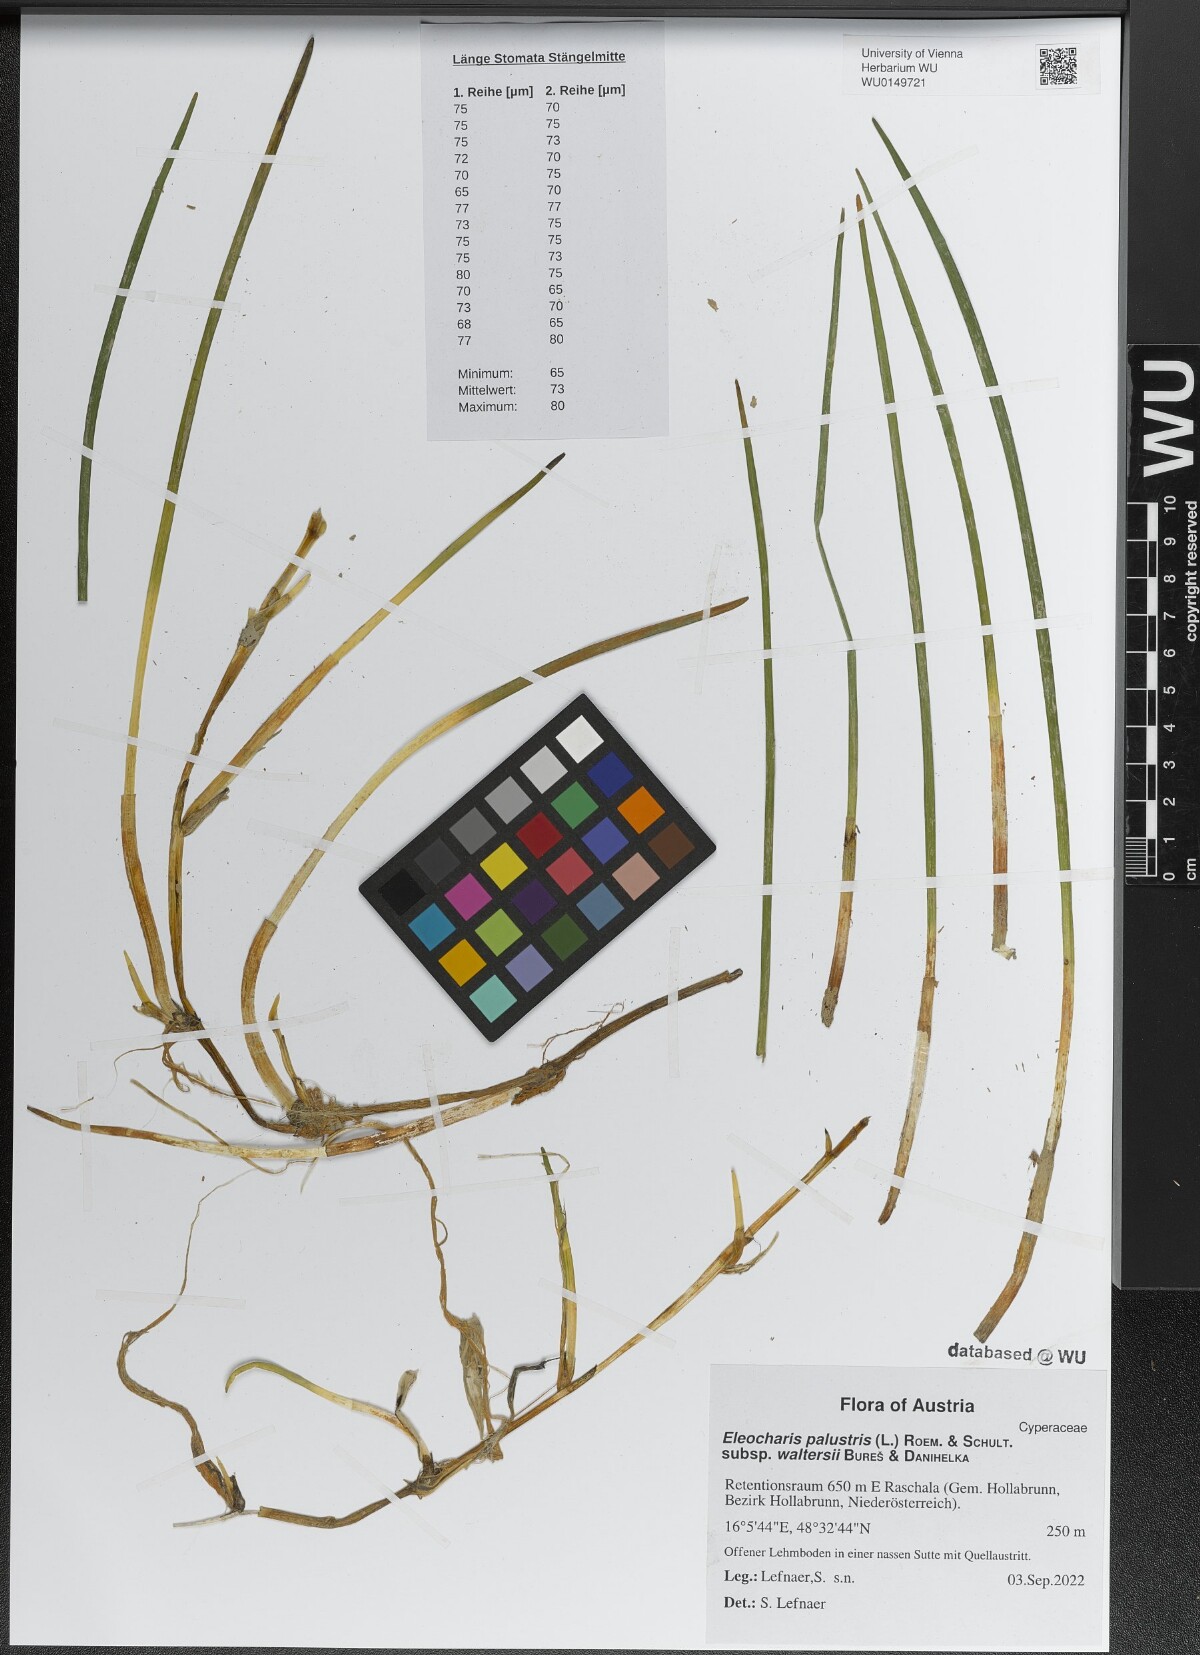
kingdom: Plantae
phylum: Tracheophyta
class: Liliopsida
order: Poales
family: Cyperaceae
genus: Eleocharis
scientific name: Eleocharis palustris
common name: Common spike-rush
